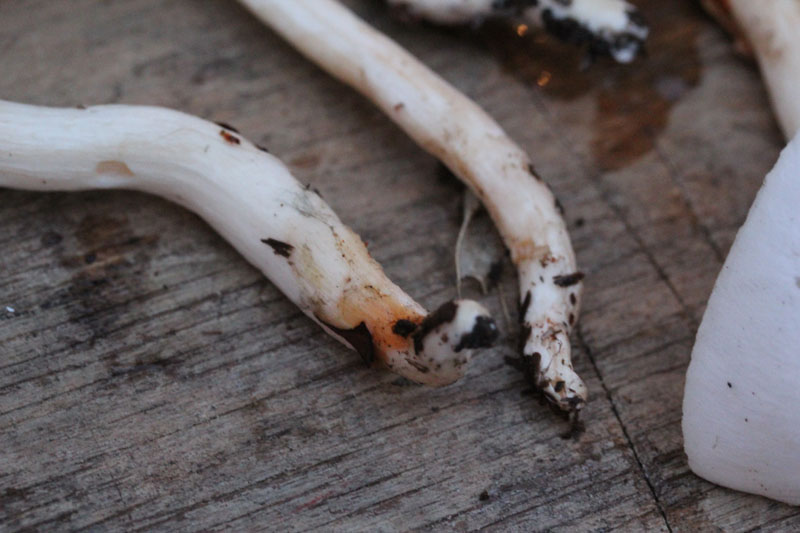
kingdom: Fungi
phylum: Basidiomycota
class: Agaricomycetes
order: Agaricales
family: Hygrophoraceae
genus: Hygrophorus
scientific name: Hygrophorus eburneus
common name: elfenbens-sneglehat
